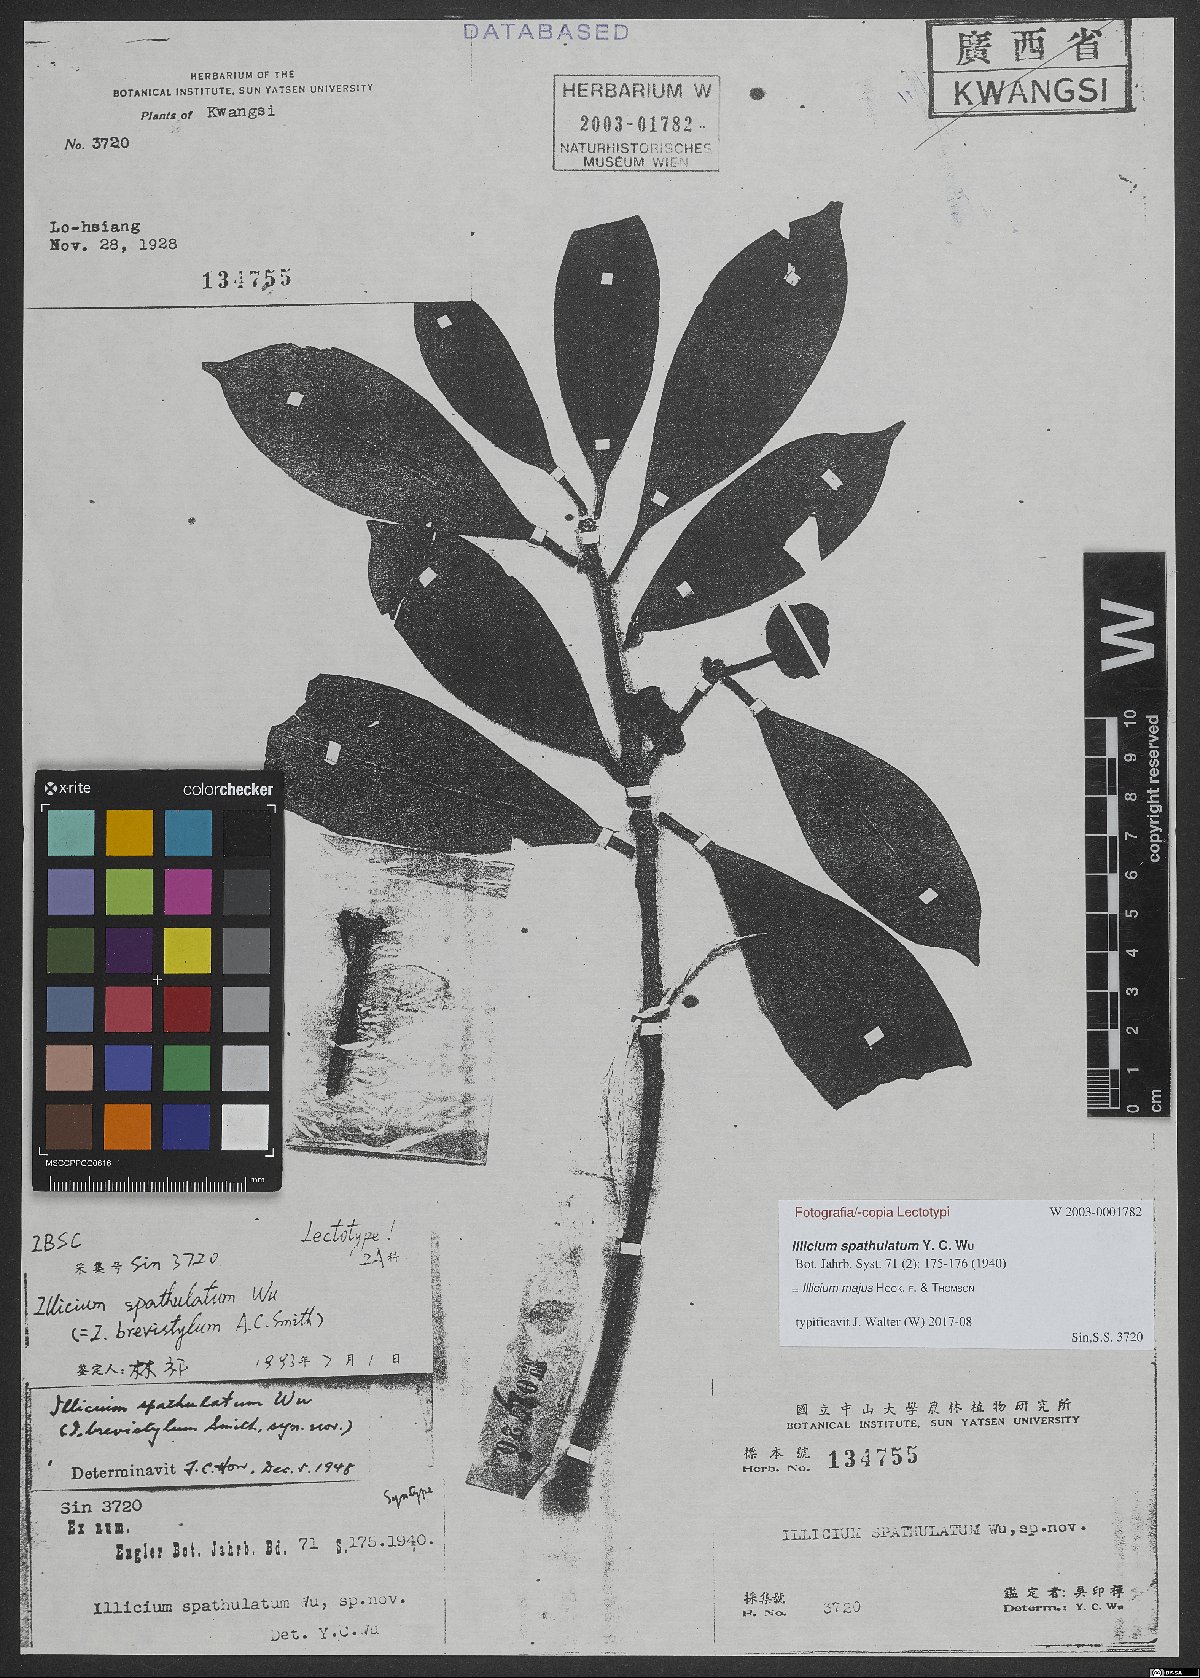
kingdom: Plantae
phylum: Tracheophyta
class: Magnoliopsida
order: Austrobaileyales
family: Schisandraceae
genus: Illicium
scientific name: Illicium majus
